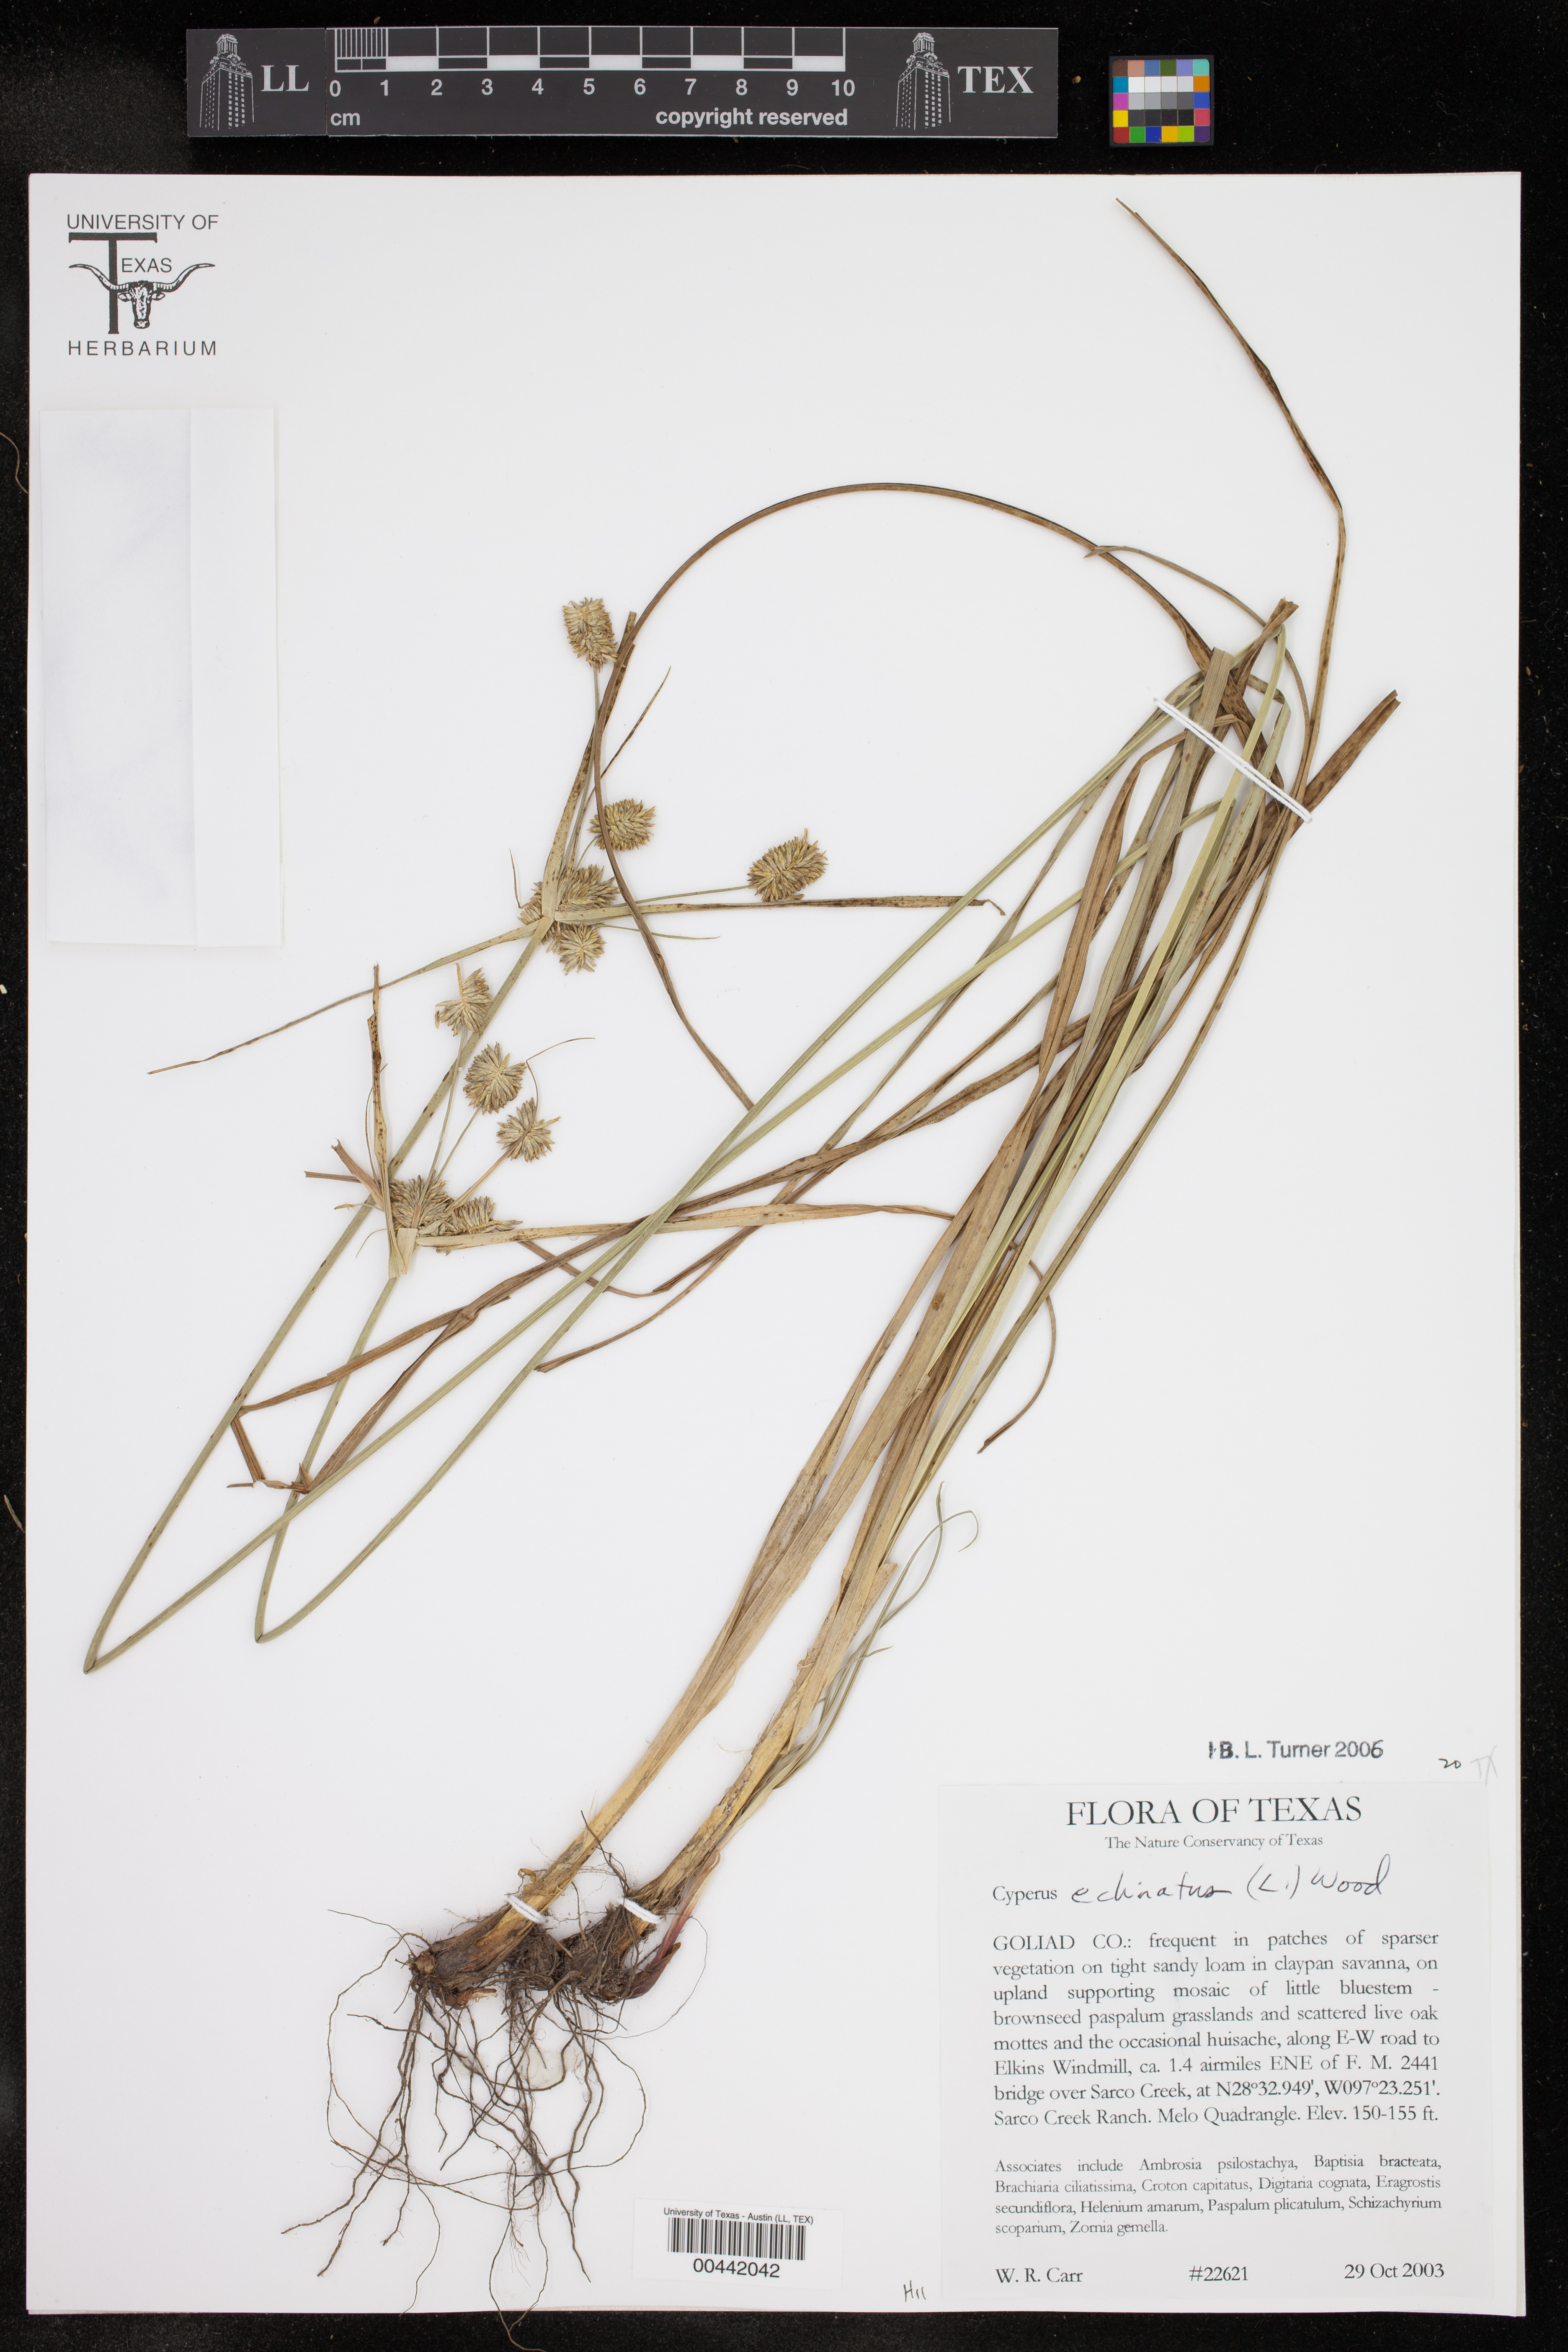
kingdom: Plantae
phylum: Tracheophyta
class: Liliopsida
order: Poales
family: Cyperaceae
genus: Cyperus
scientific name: Cyperus echinatus
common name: Teasel sedge
